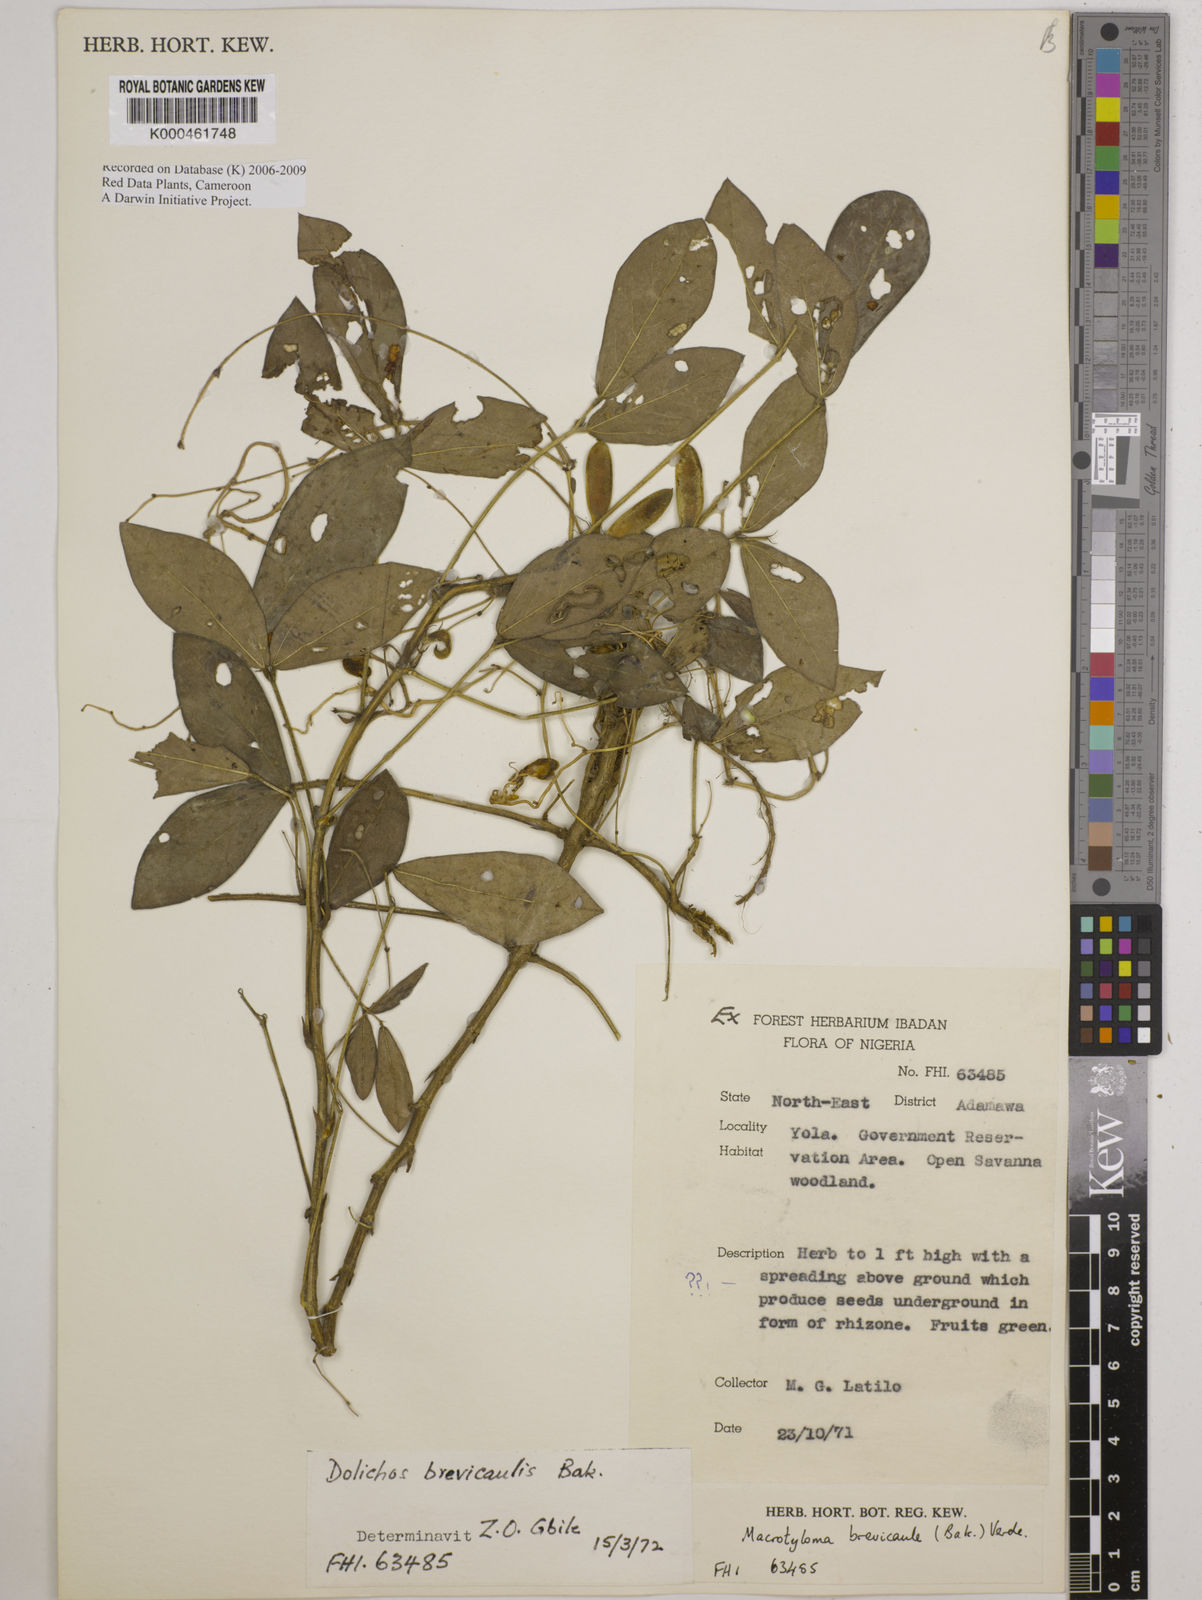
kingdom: Plantae
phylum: Tracheophyta
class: Magnoliopsida
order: Fabales
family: Fabaceae
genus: Macrotyloma
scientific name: Macrotyloma brevicaule
